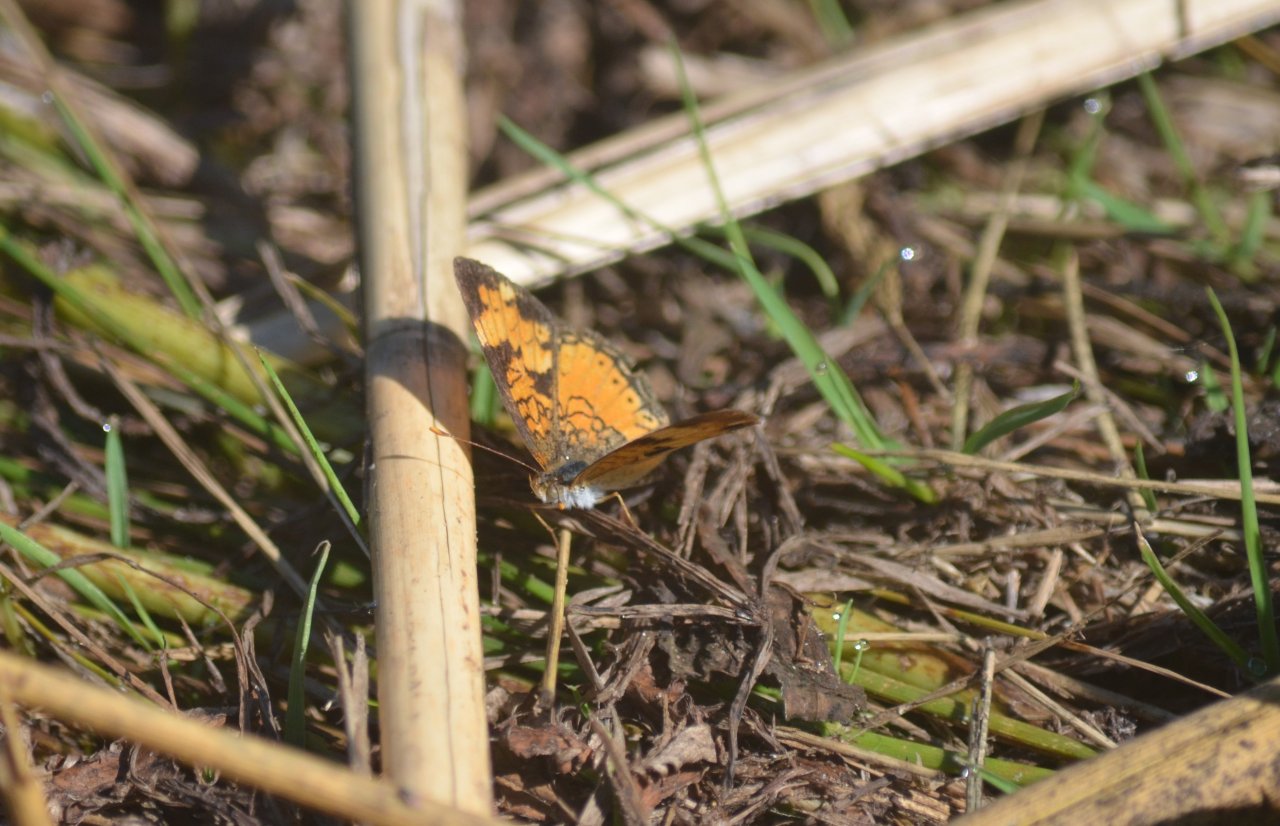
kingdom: Animalia
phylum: Arthropoda
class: Insecta
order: Lepidoptera
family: Nymphalidae
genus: Phyciodes
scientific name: Phyciodes tharos
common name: Northern Crescent
